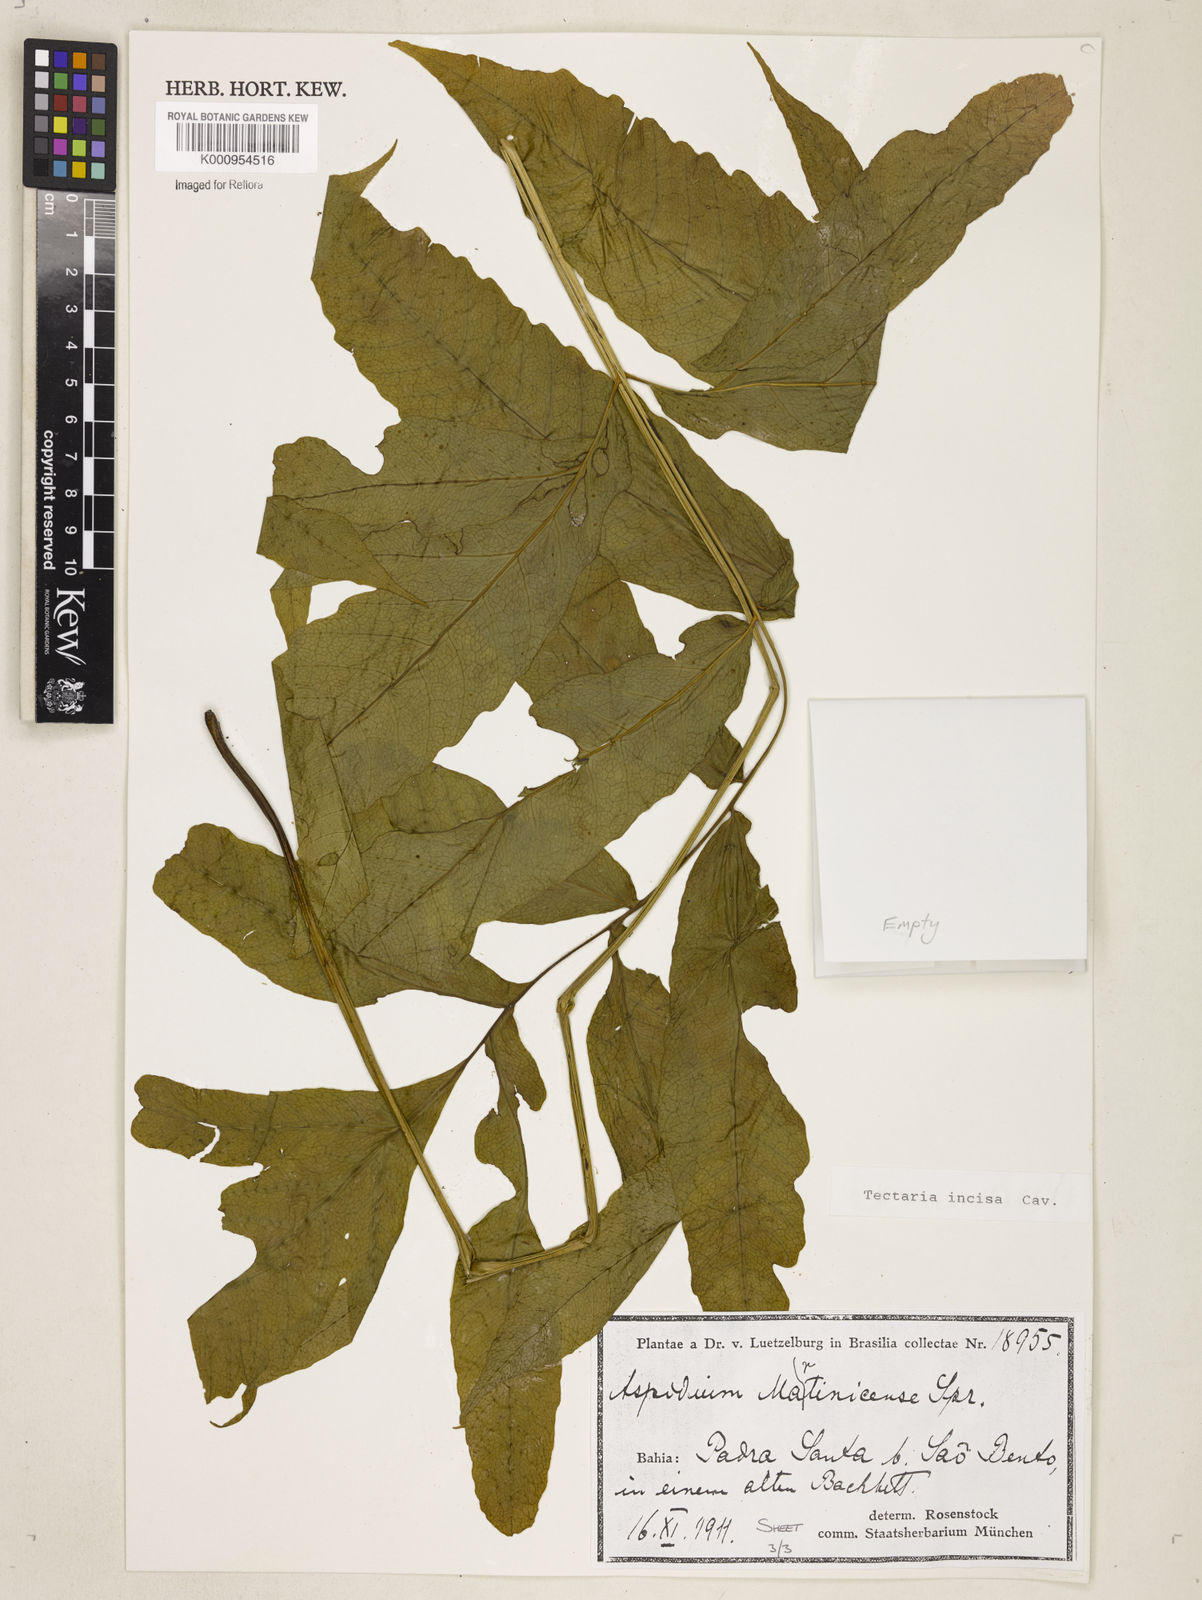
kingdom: Plantae
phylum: Tracheophyta
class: Polypodiopsida
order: Polypodiales
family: Tectariaceae
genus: Tectaria
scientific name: Tectaria incisa
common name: Incised halberd fern
